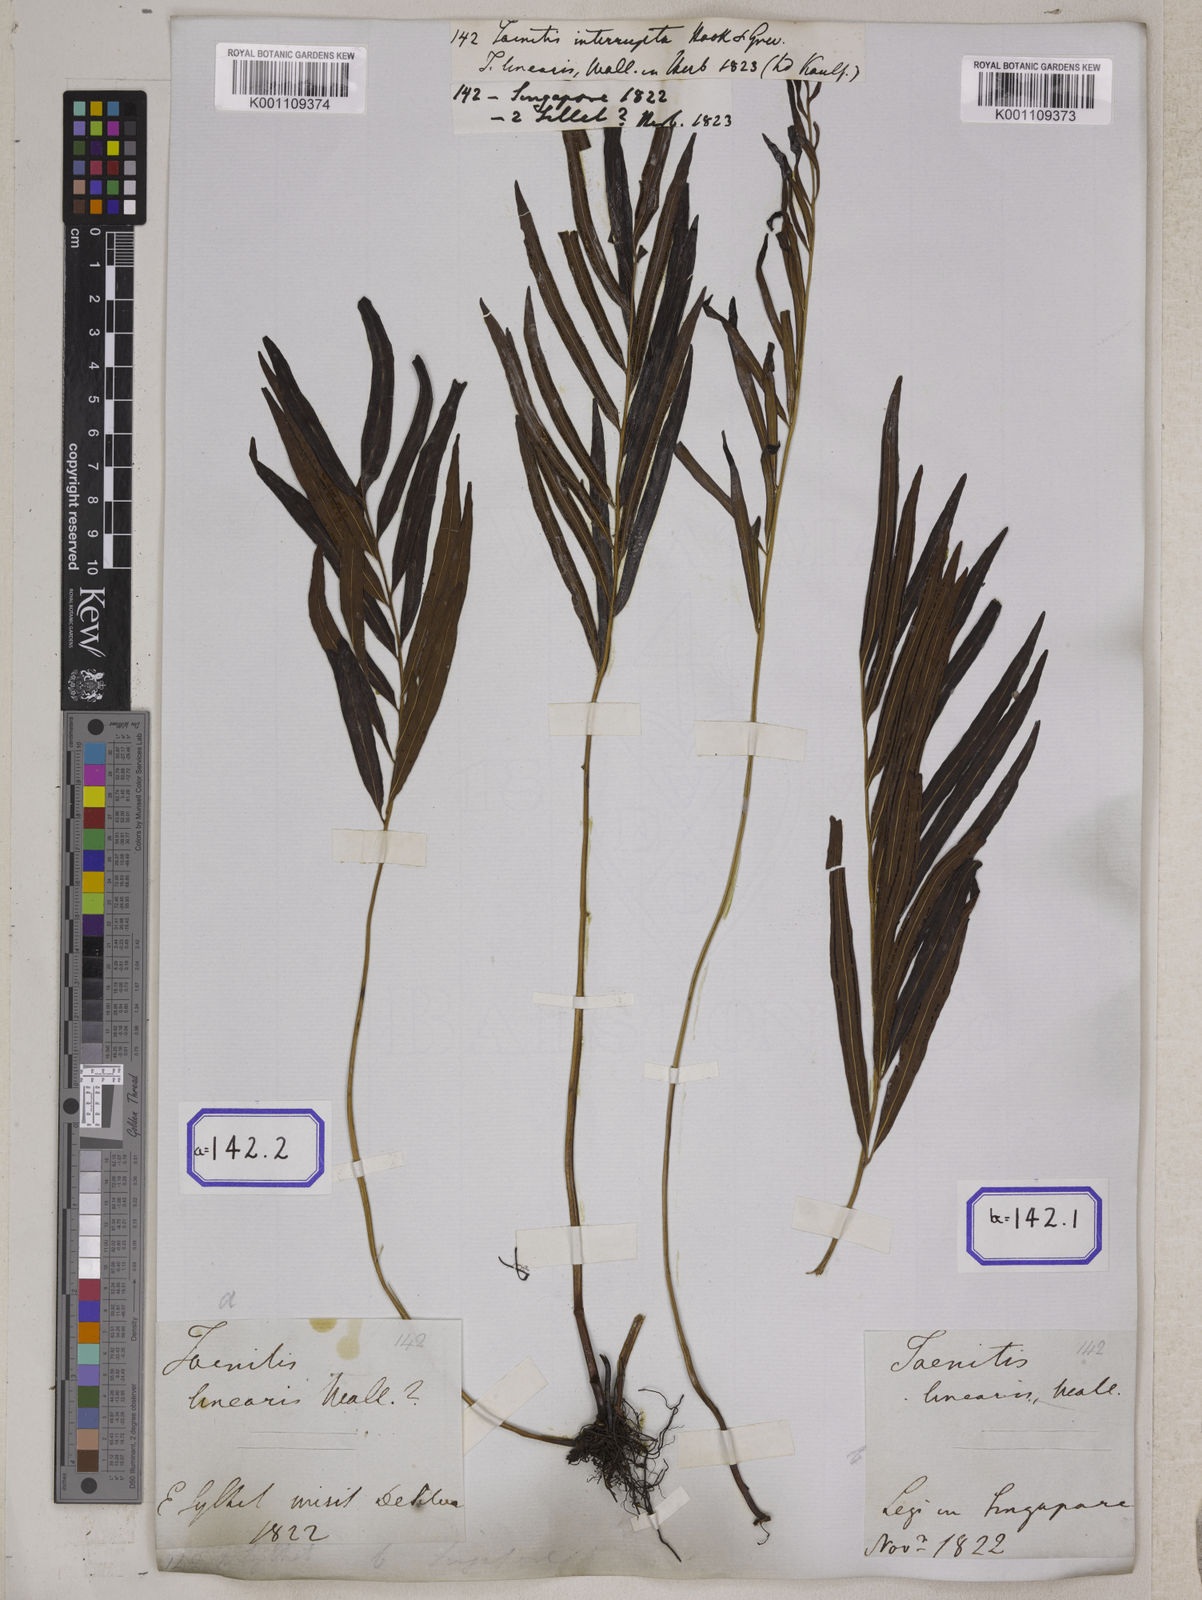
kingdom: Plantae
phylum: Tracheophyta
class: Polypodiopsida
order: Polypodiales
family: Pteridaceae
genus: Taenitis
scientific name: Taenitis blechnoides
